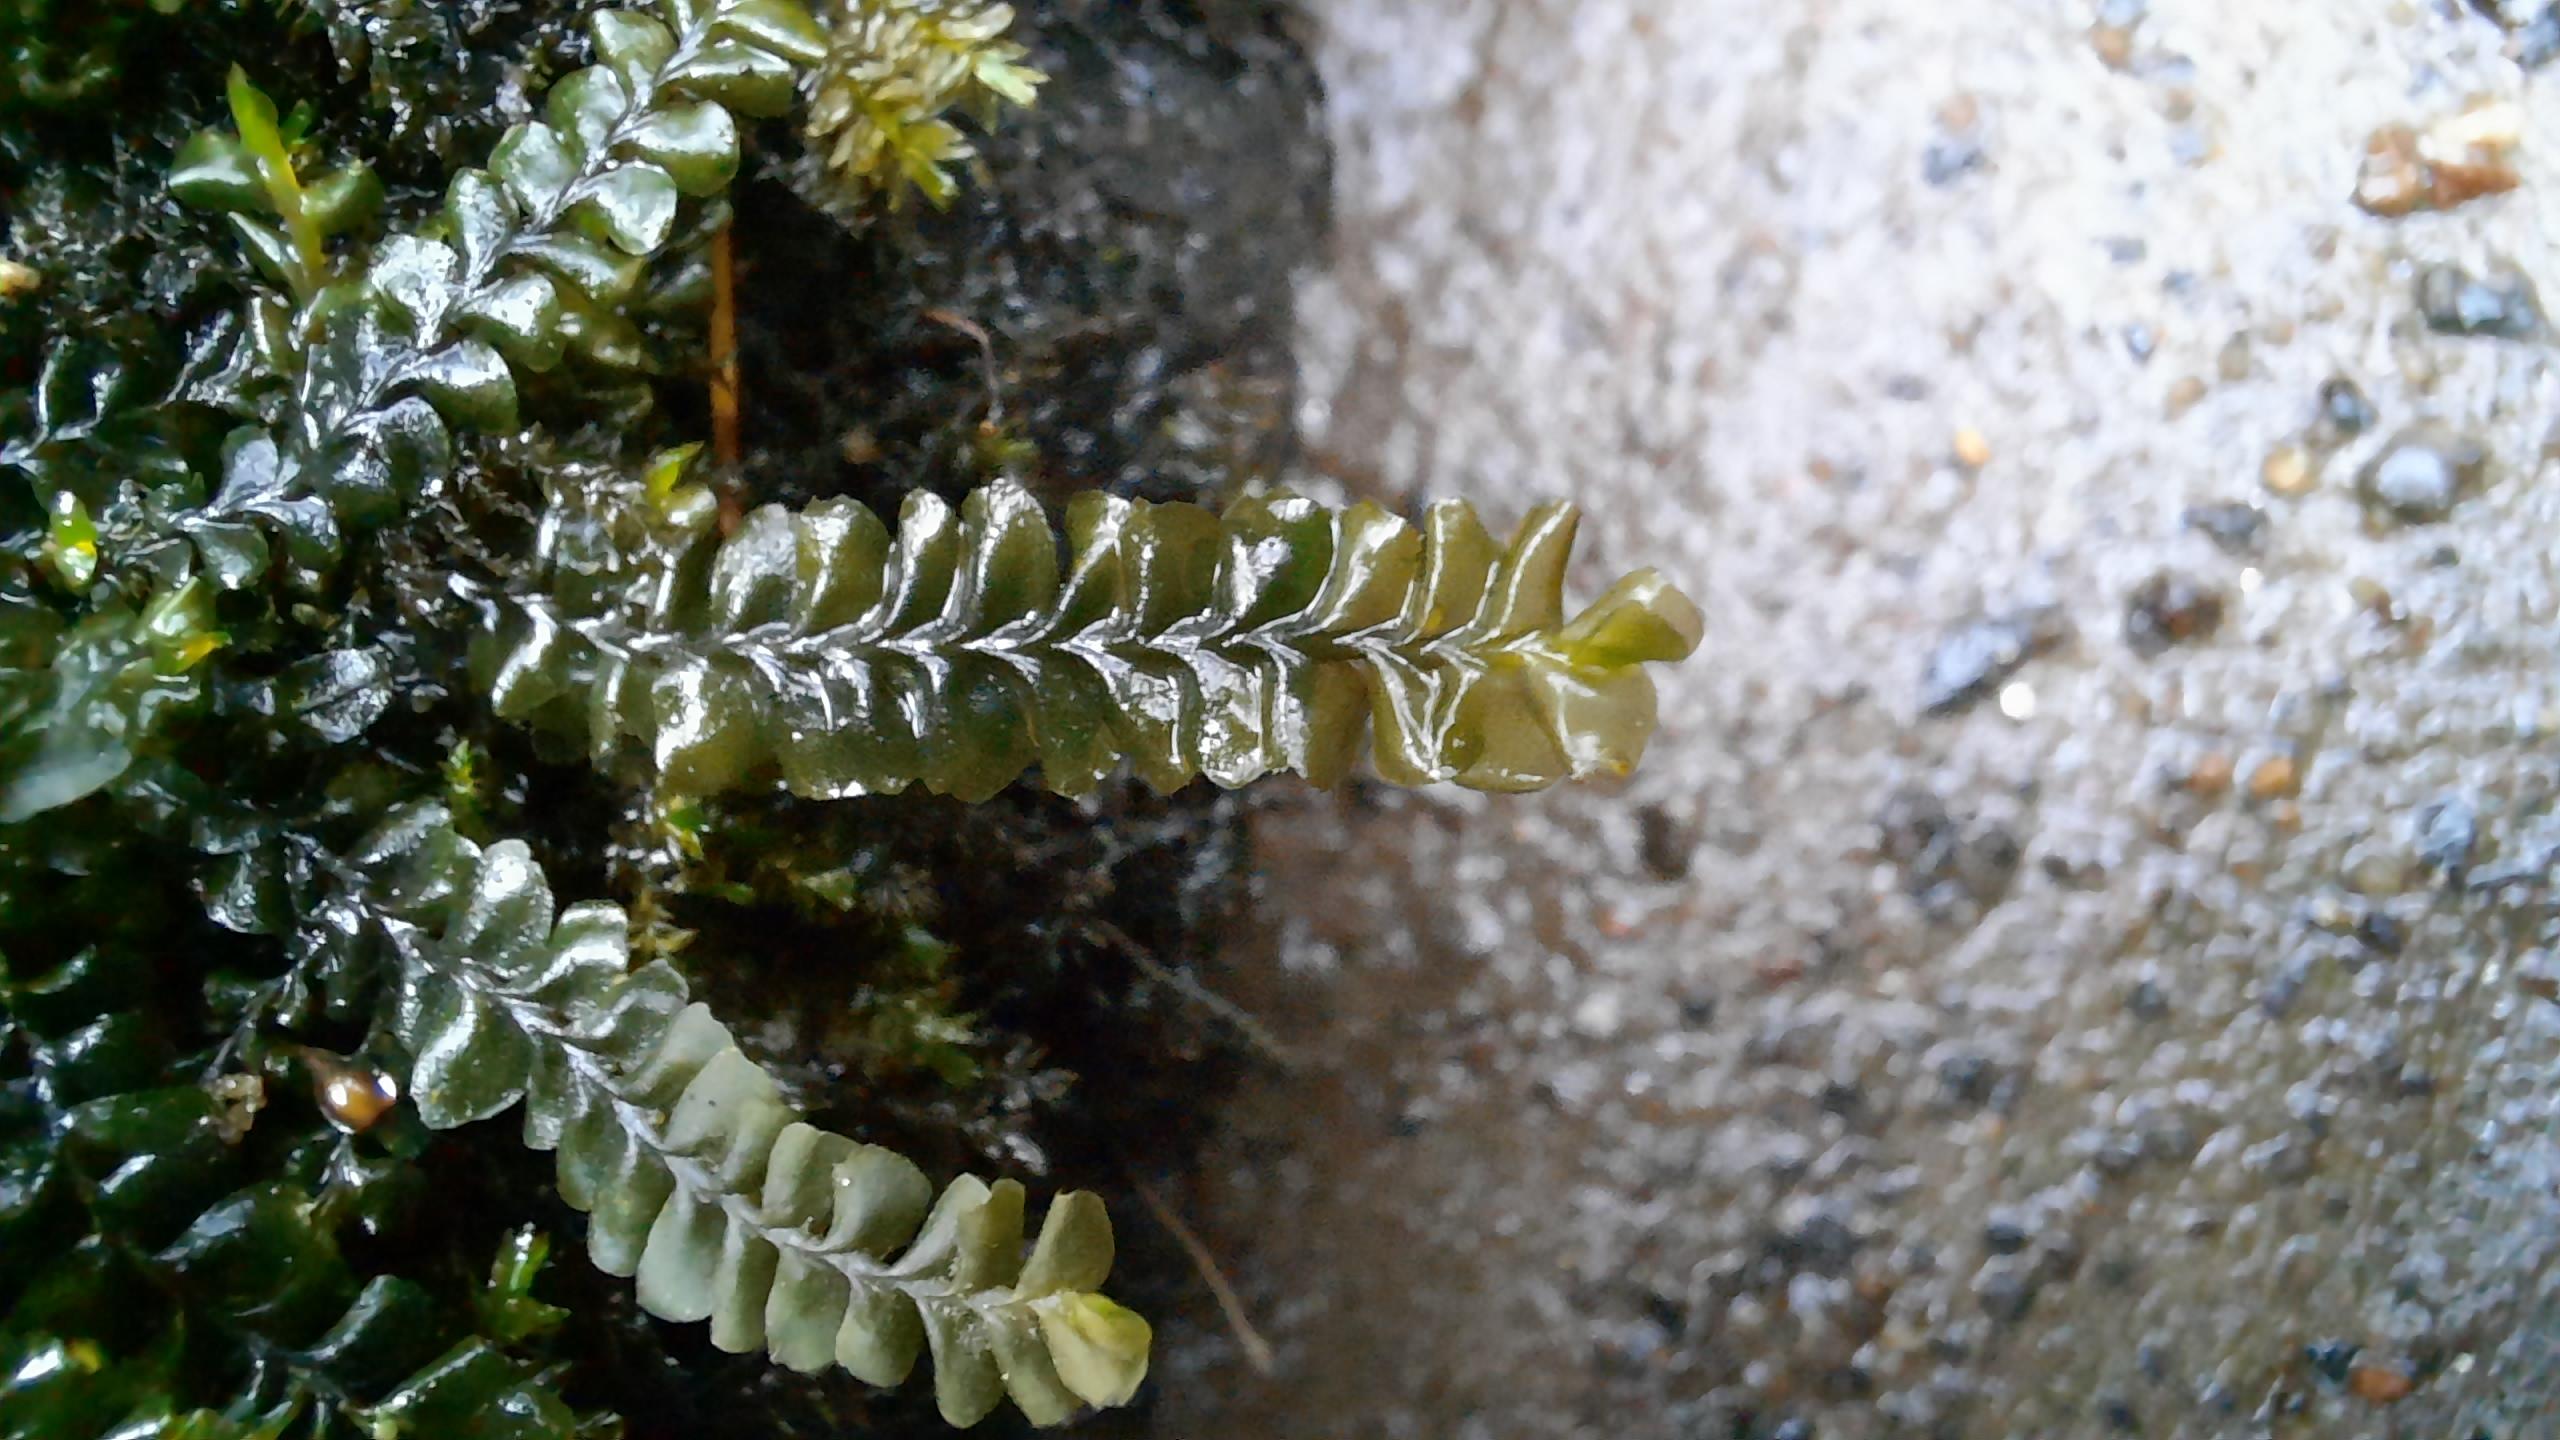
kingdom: Plantae
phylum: Marchantiophyta
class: Jungermanniopsida
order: Jungermanniales
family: Plagiochilaceae
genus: Plagiochila
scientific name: Plagiochila asplenioides
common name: Radeløv-hindeblad
